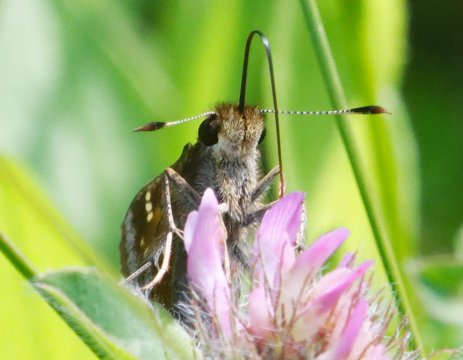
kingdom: Animalia
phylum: Arthropoda
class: Insecta
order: Lepidoptera
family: Hesperiidae
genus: Lon
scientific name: Lon hobomok
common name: Hobomok Skipper
